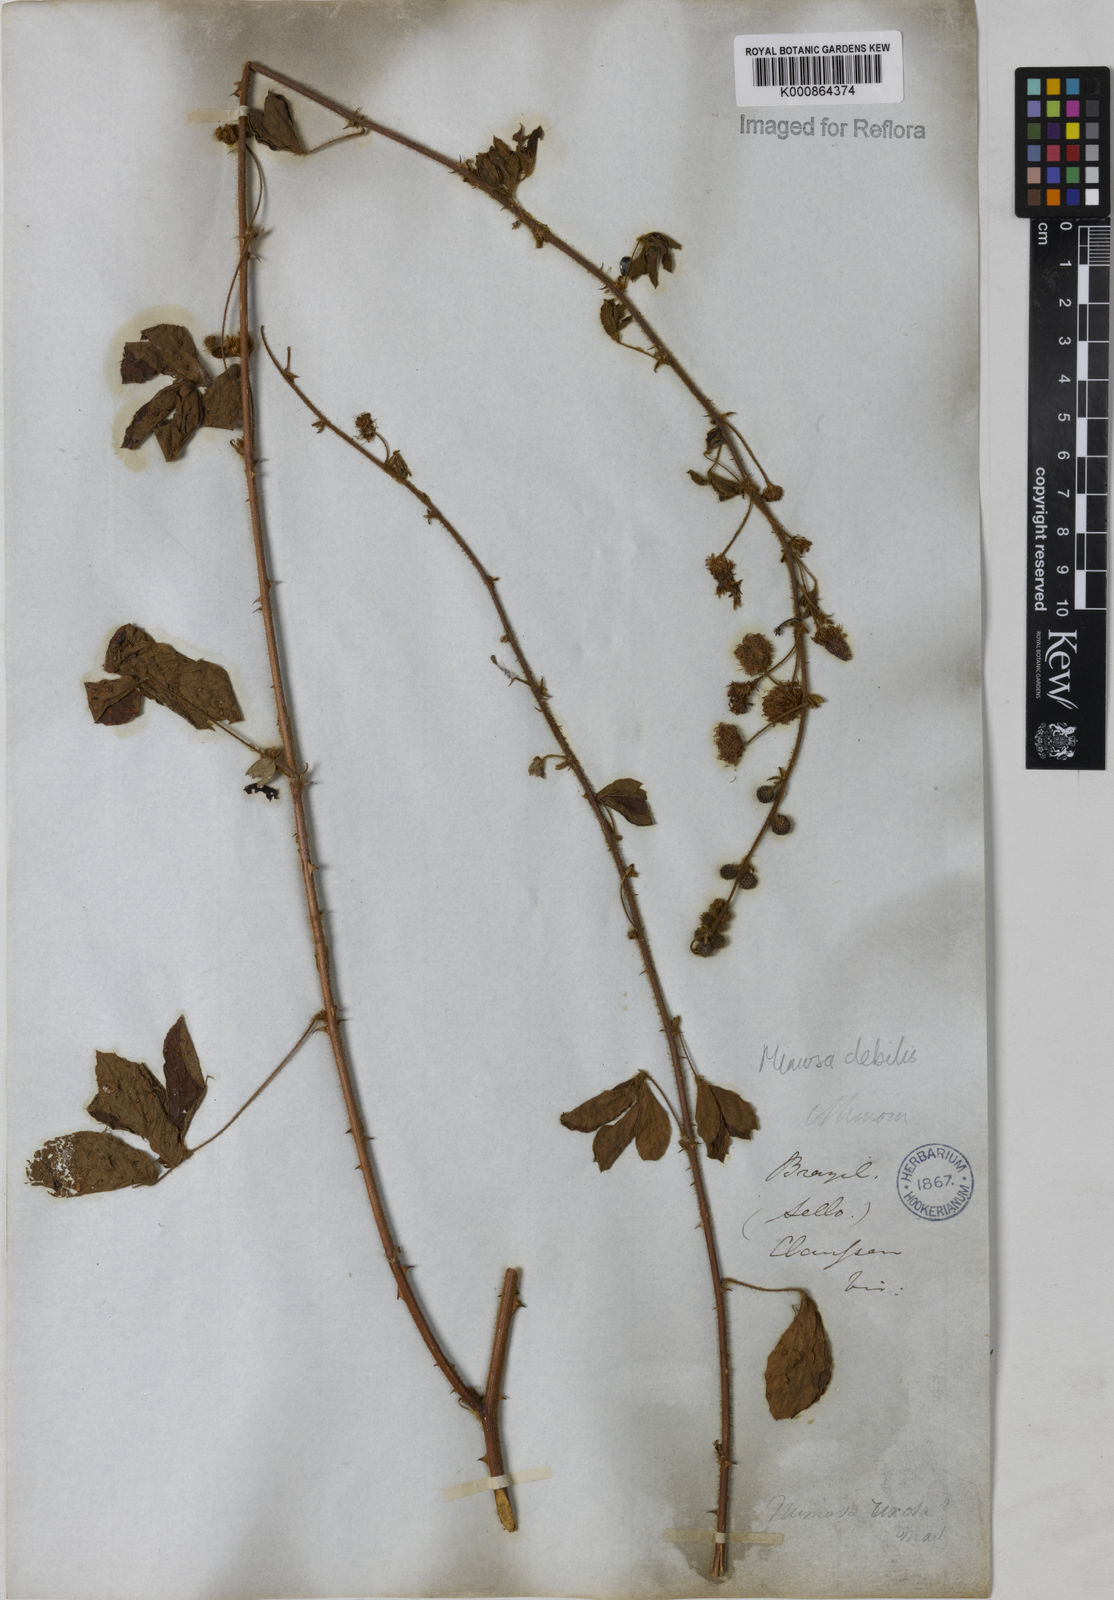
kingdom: Plantae
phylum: Tracheophyta
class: Magnoliopsida
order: Fabales
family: Fabaceae
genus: Mimosa
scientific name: Mimosa
